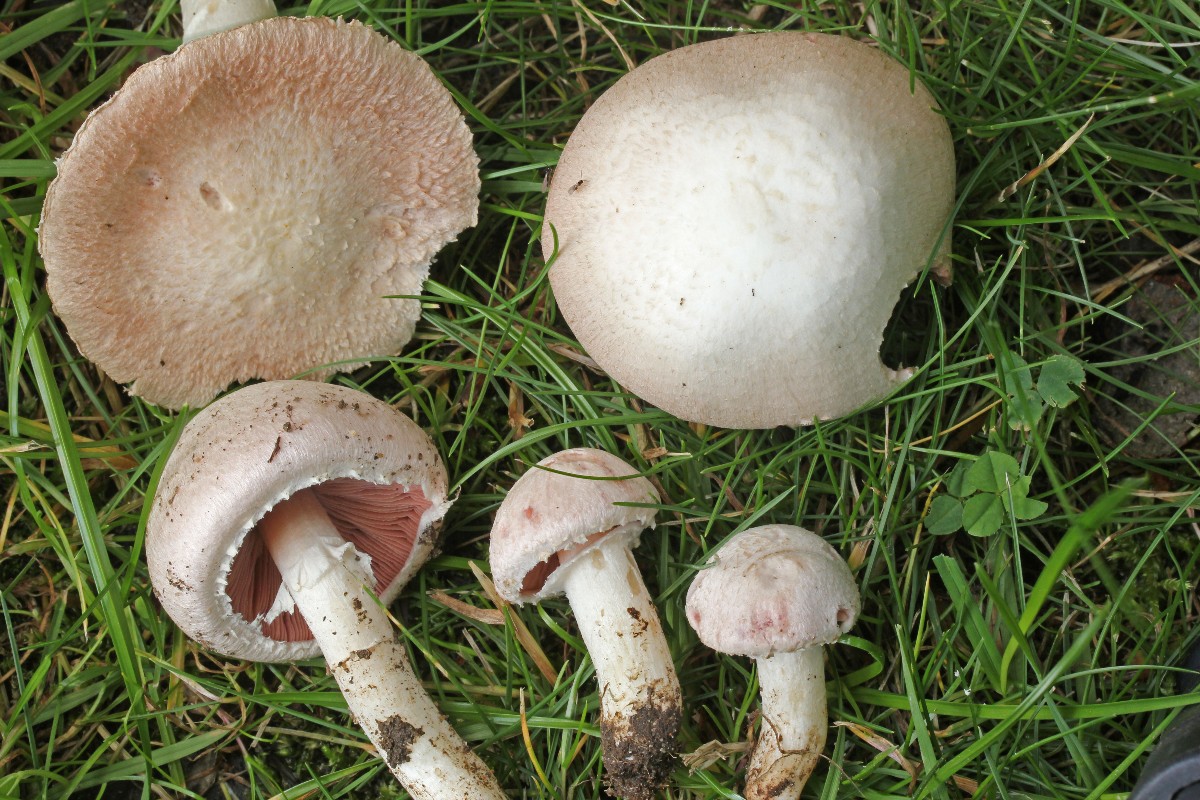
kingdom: Fungi
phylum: Basidiomycota
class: Agaricomycetes
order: Agaricales
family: Agaricaceae
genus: Agaricus
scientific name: Agaricus campestris
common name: mark-champignon
